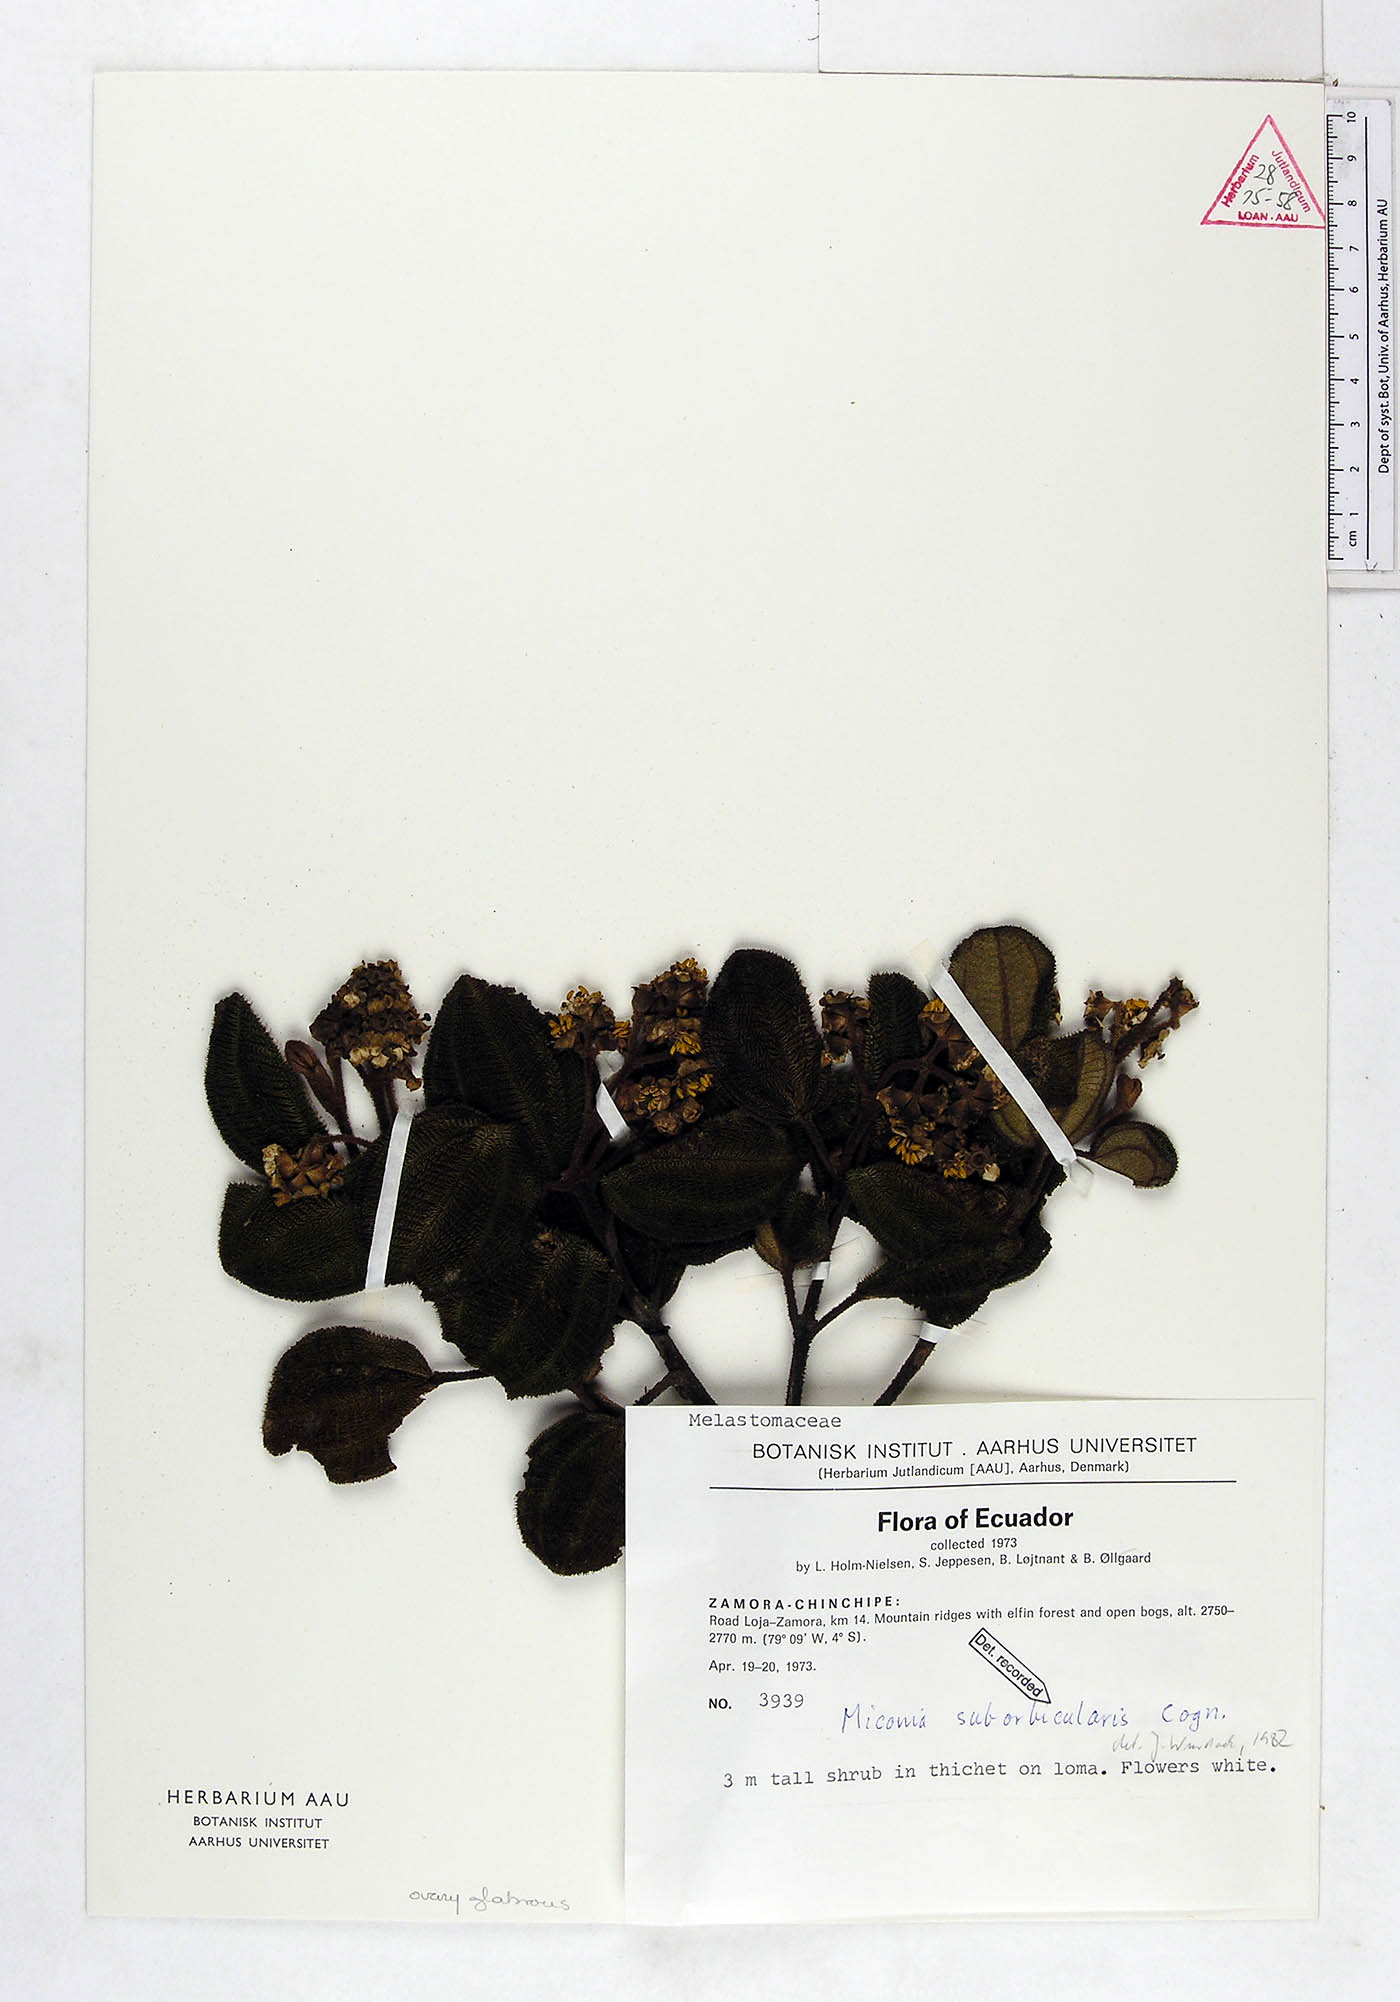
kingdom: Plantae
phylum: Tracheophyta
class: Magnoliopsida
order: Myrtales
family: Melastomataceae
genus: Miconia
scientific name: Miconia suborbicularis
